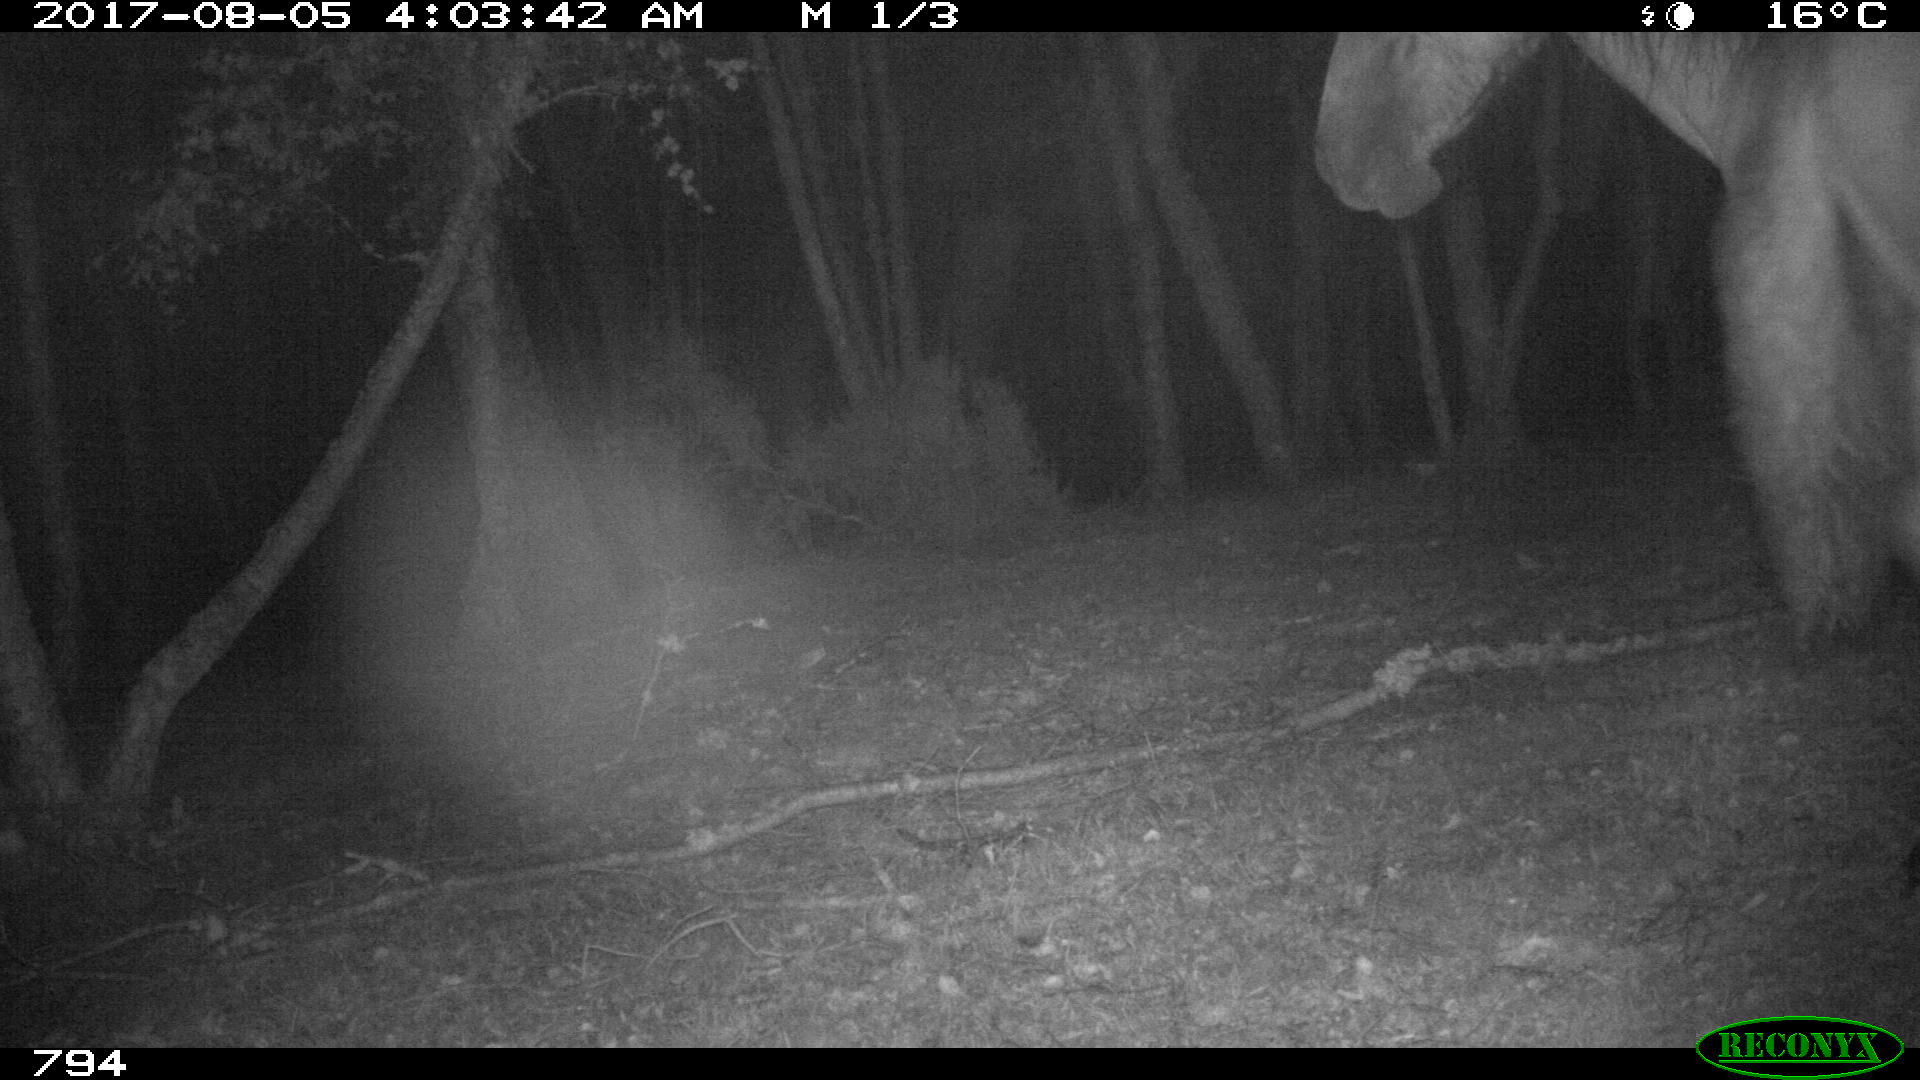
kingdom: Animalia
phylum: Chordata
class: Mammalia
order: Perissodactyla
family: Equidae
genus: Equus
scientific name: Equus caballus
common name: Horse
